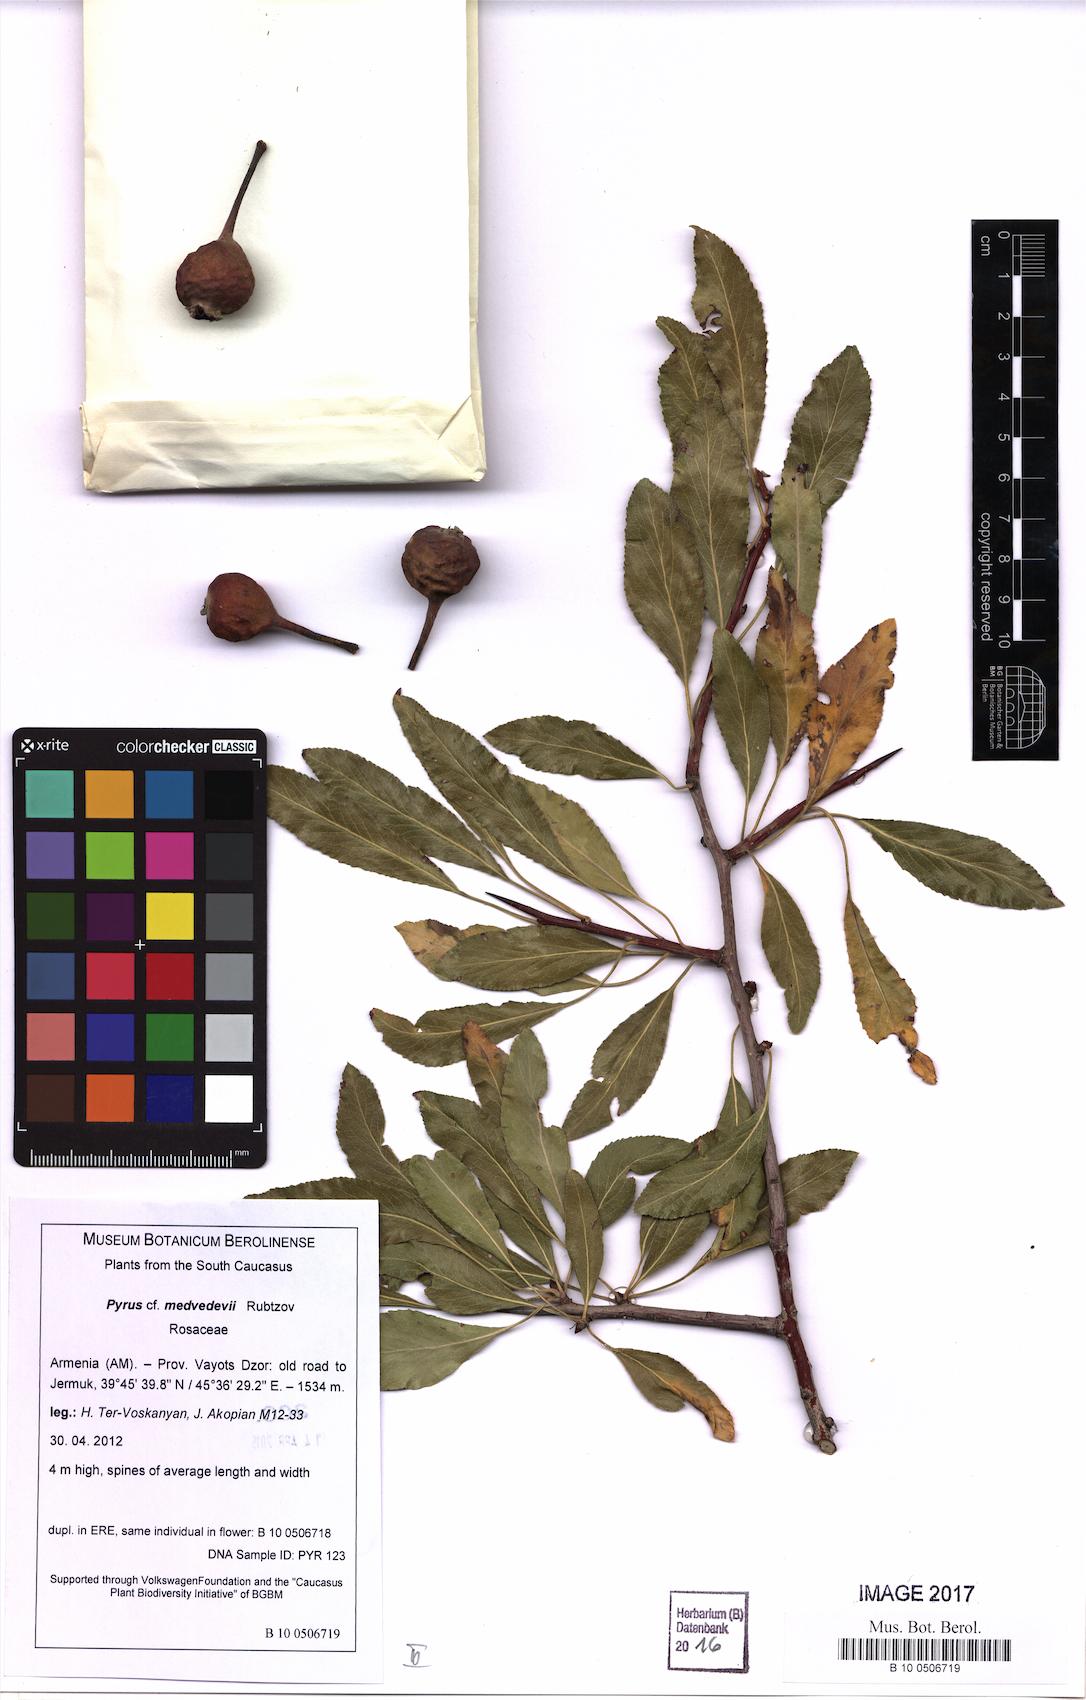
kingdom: Plantae
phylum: Tracheophyta
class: Magnoliopsida
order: Rosales
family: Rosaceae
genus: Pyrus
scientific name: Pyrus medvedevii
